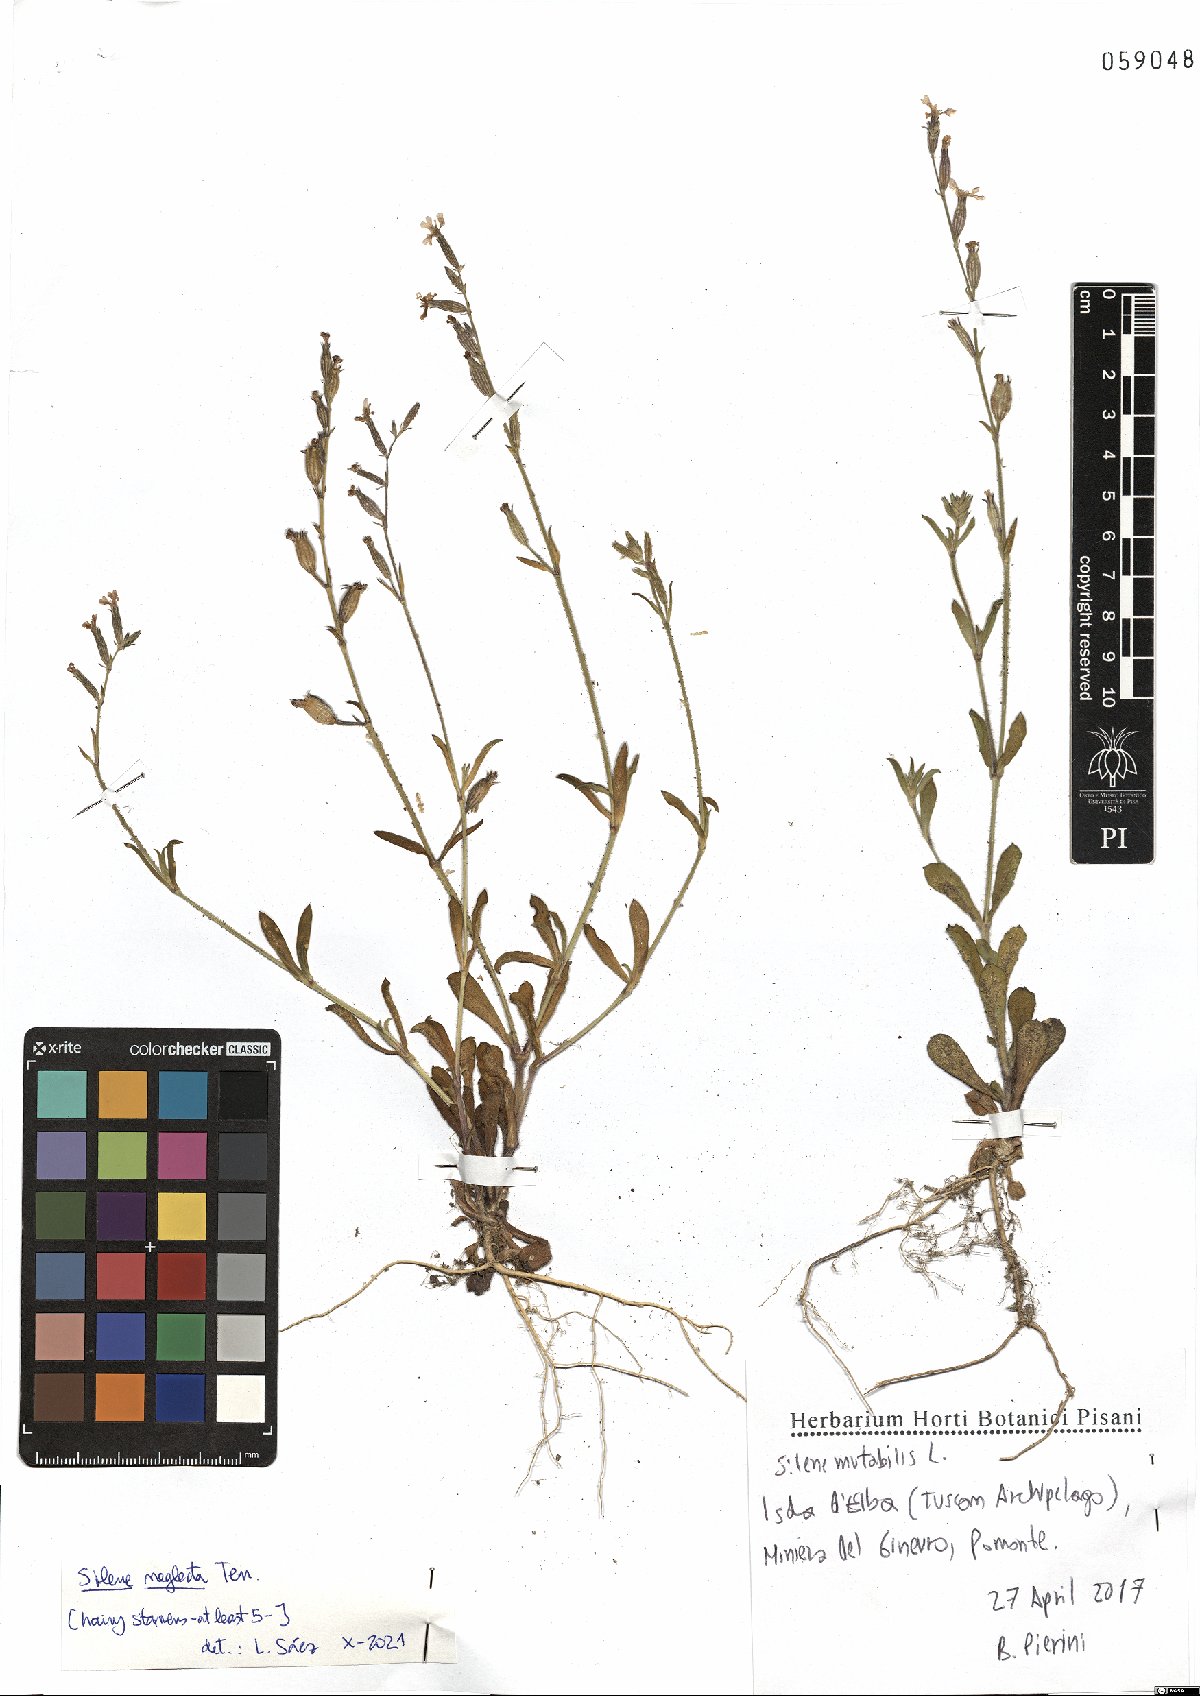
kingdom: Plantae
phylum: Tracheophyta
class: Magnoliopsida
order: Caryophyllales
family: Caryophyllaceae
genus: Silene
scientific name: Silene neglecta
